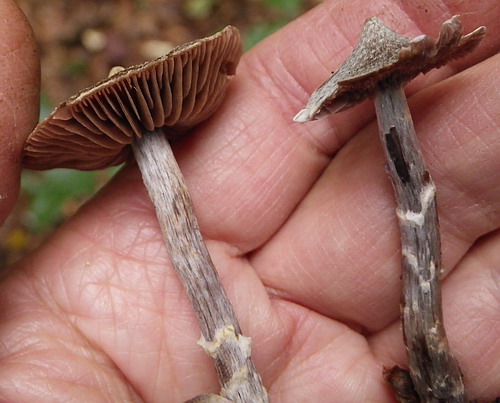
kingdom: Fungi
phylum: Basidiomycota
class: Agaricomycetes
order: Agaricales
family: Cortinariaceae
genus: Cortinarius
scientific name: Cortinarius
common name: pelargonie-slørhat
